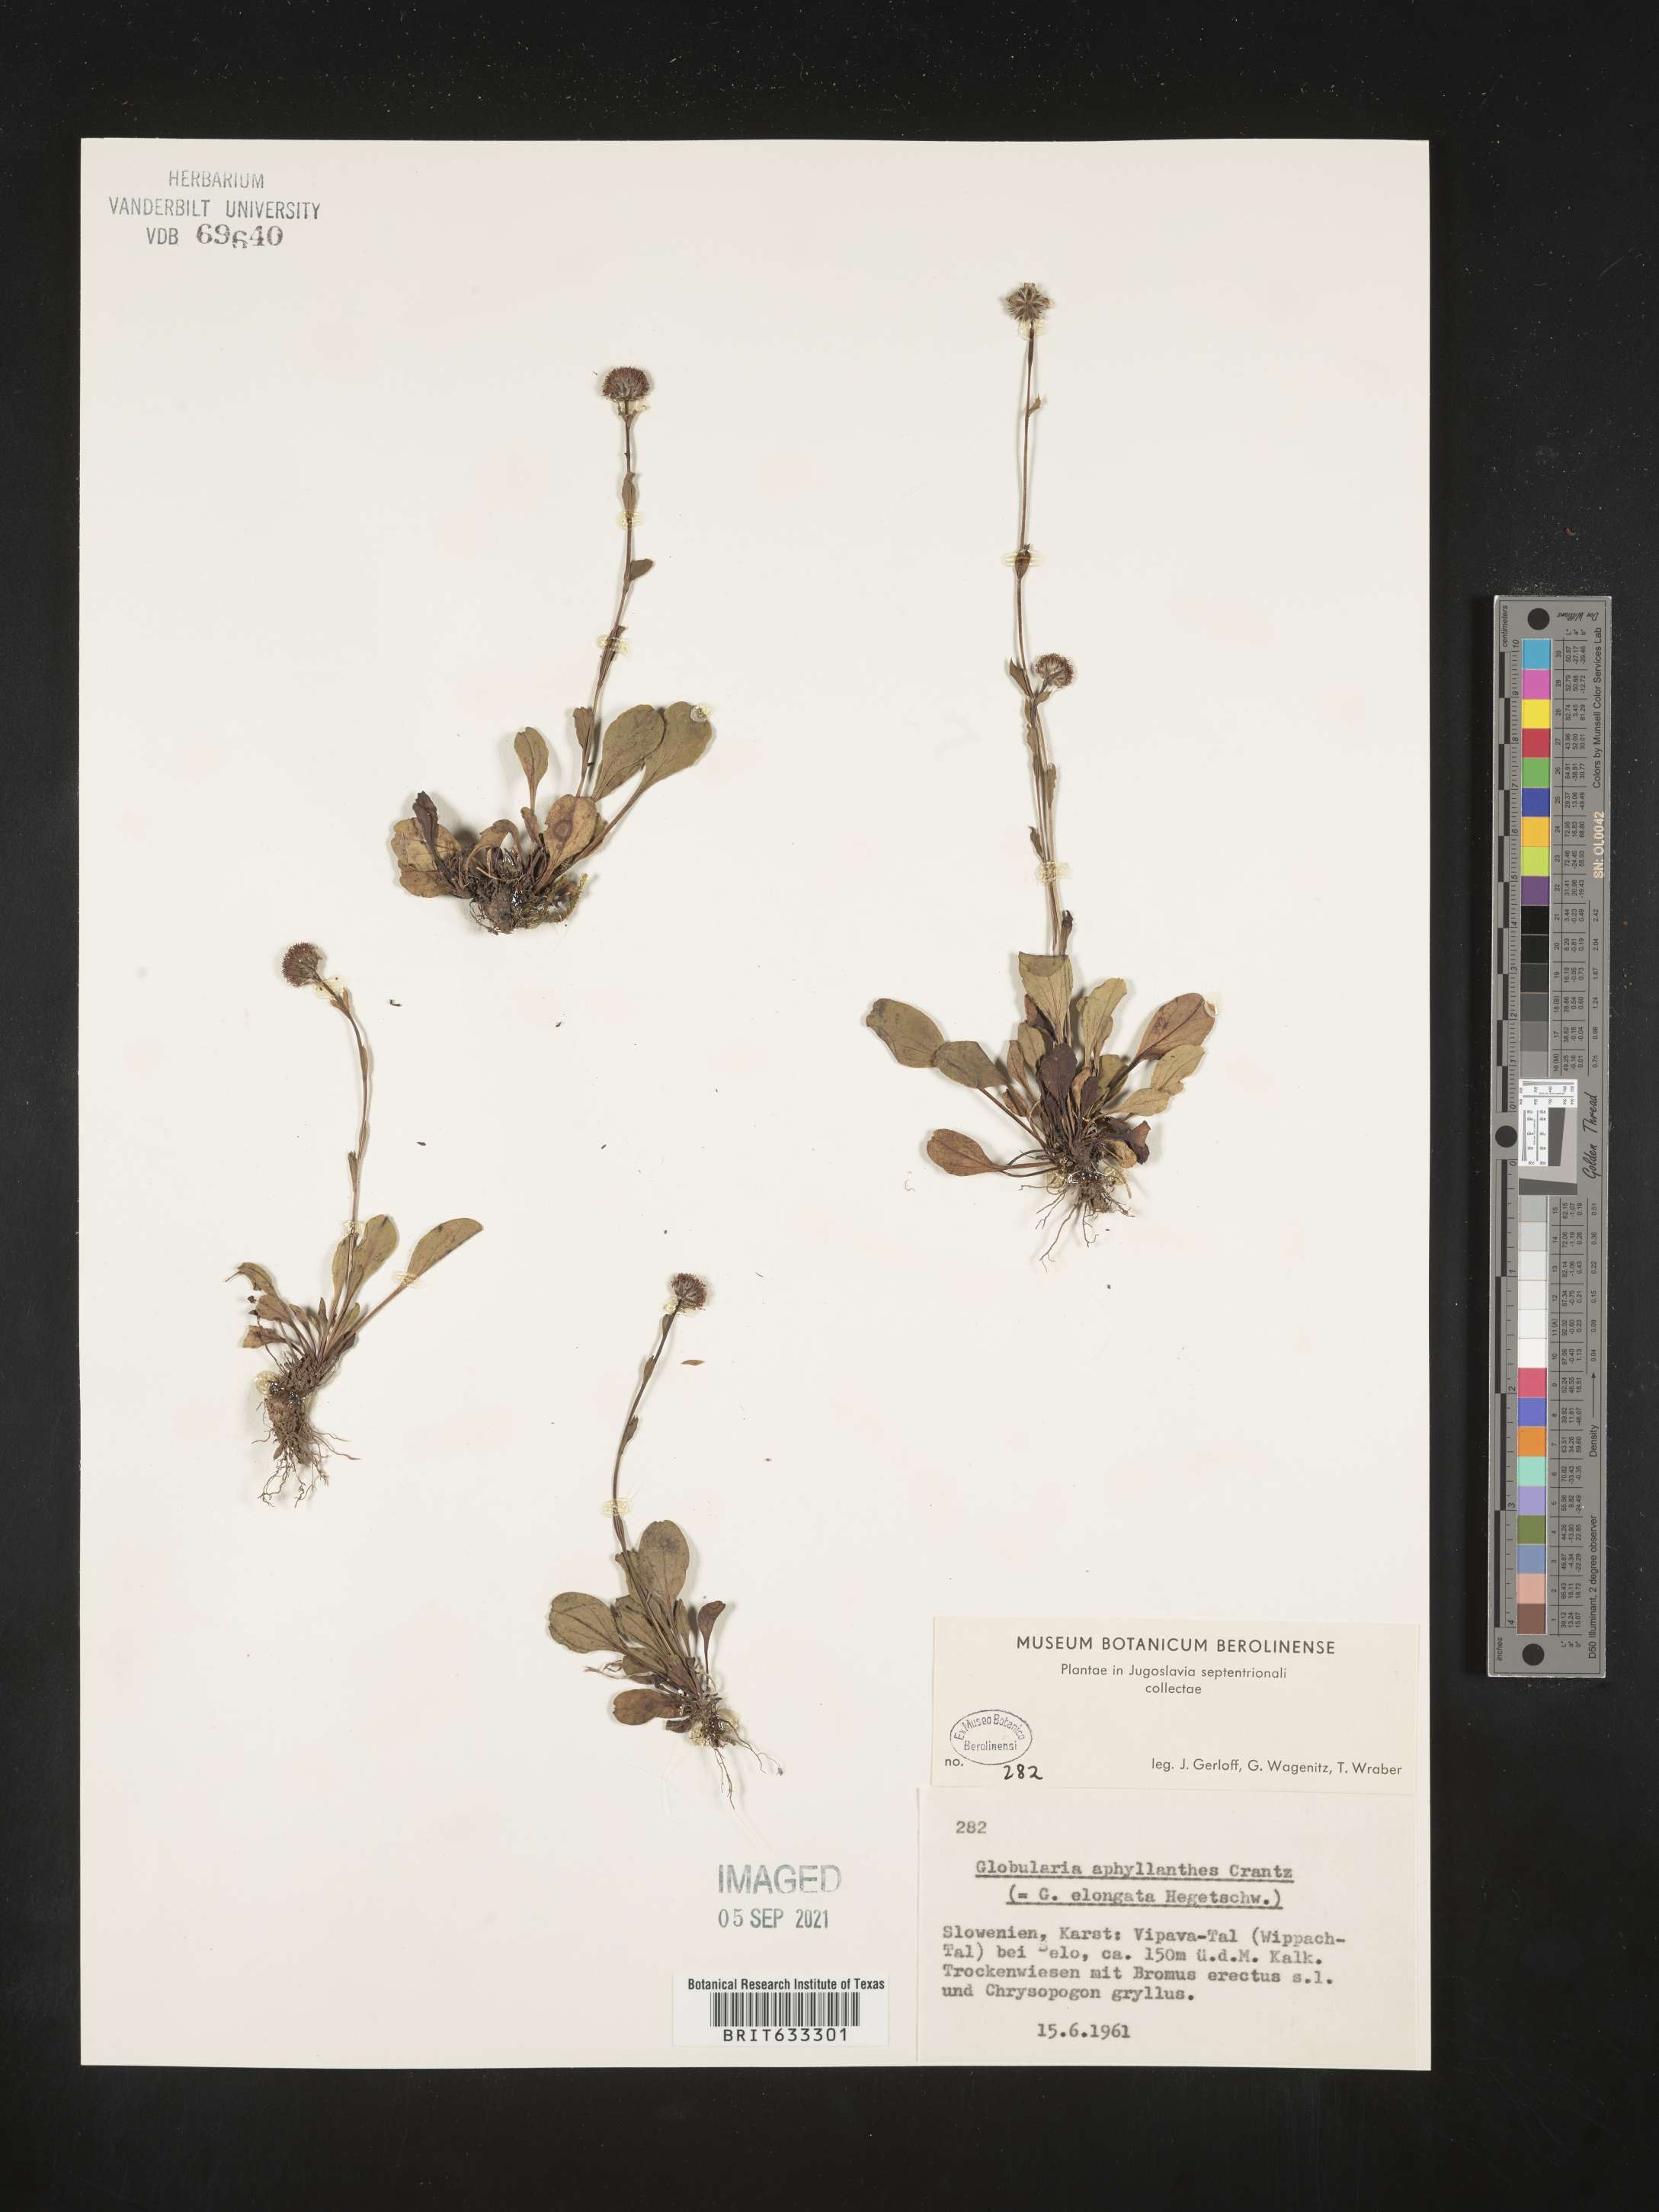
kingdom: Plantae
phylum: Tracheophyta
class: Magnoliopsida
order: Lamiales
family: Plantaginaceae
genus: Globularia
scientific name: Globularia
